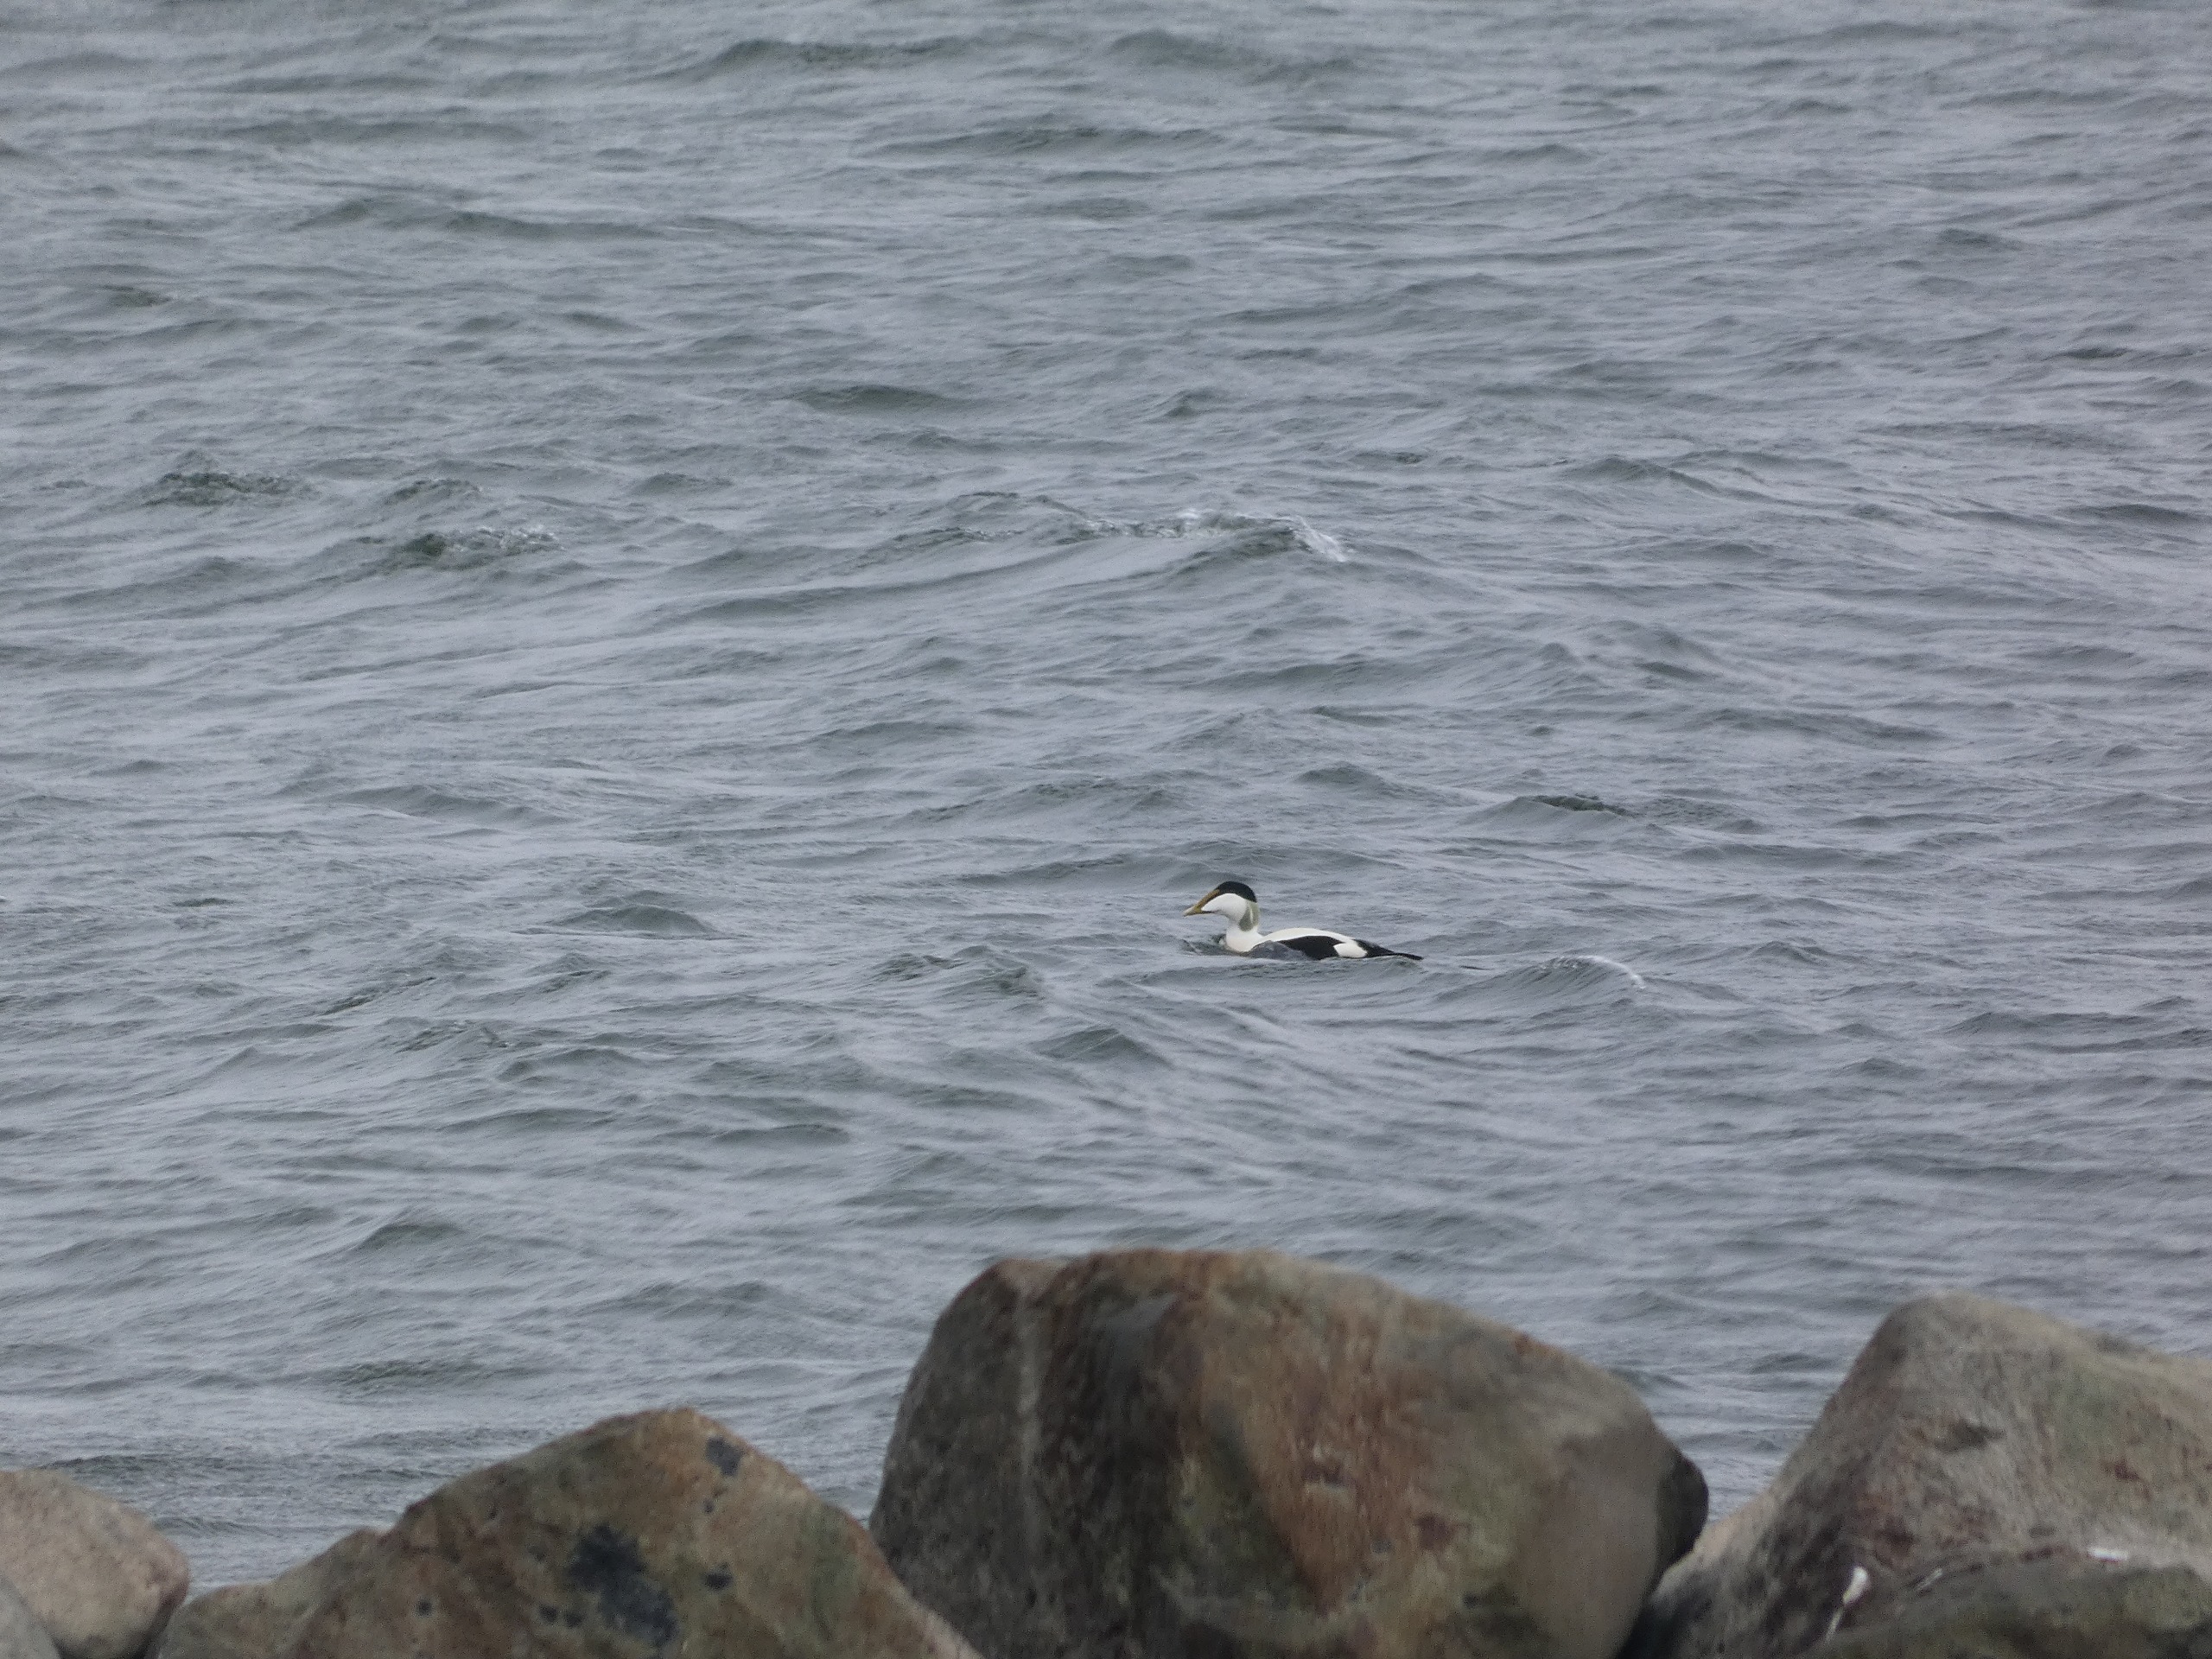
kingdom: Animalia
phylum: Chordata
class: Aves
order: Anseriformes
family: Anatidae
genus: Somateria
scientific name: Somateria mollissima
